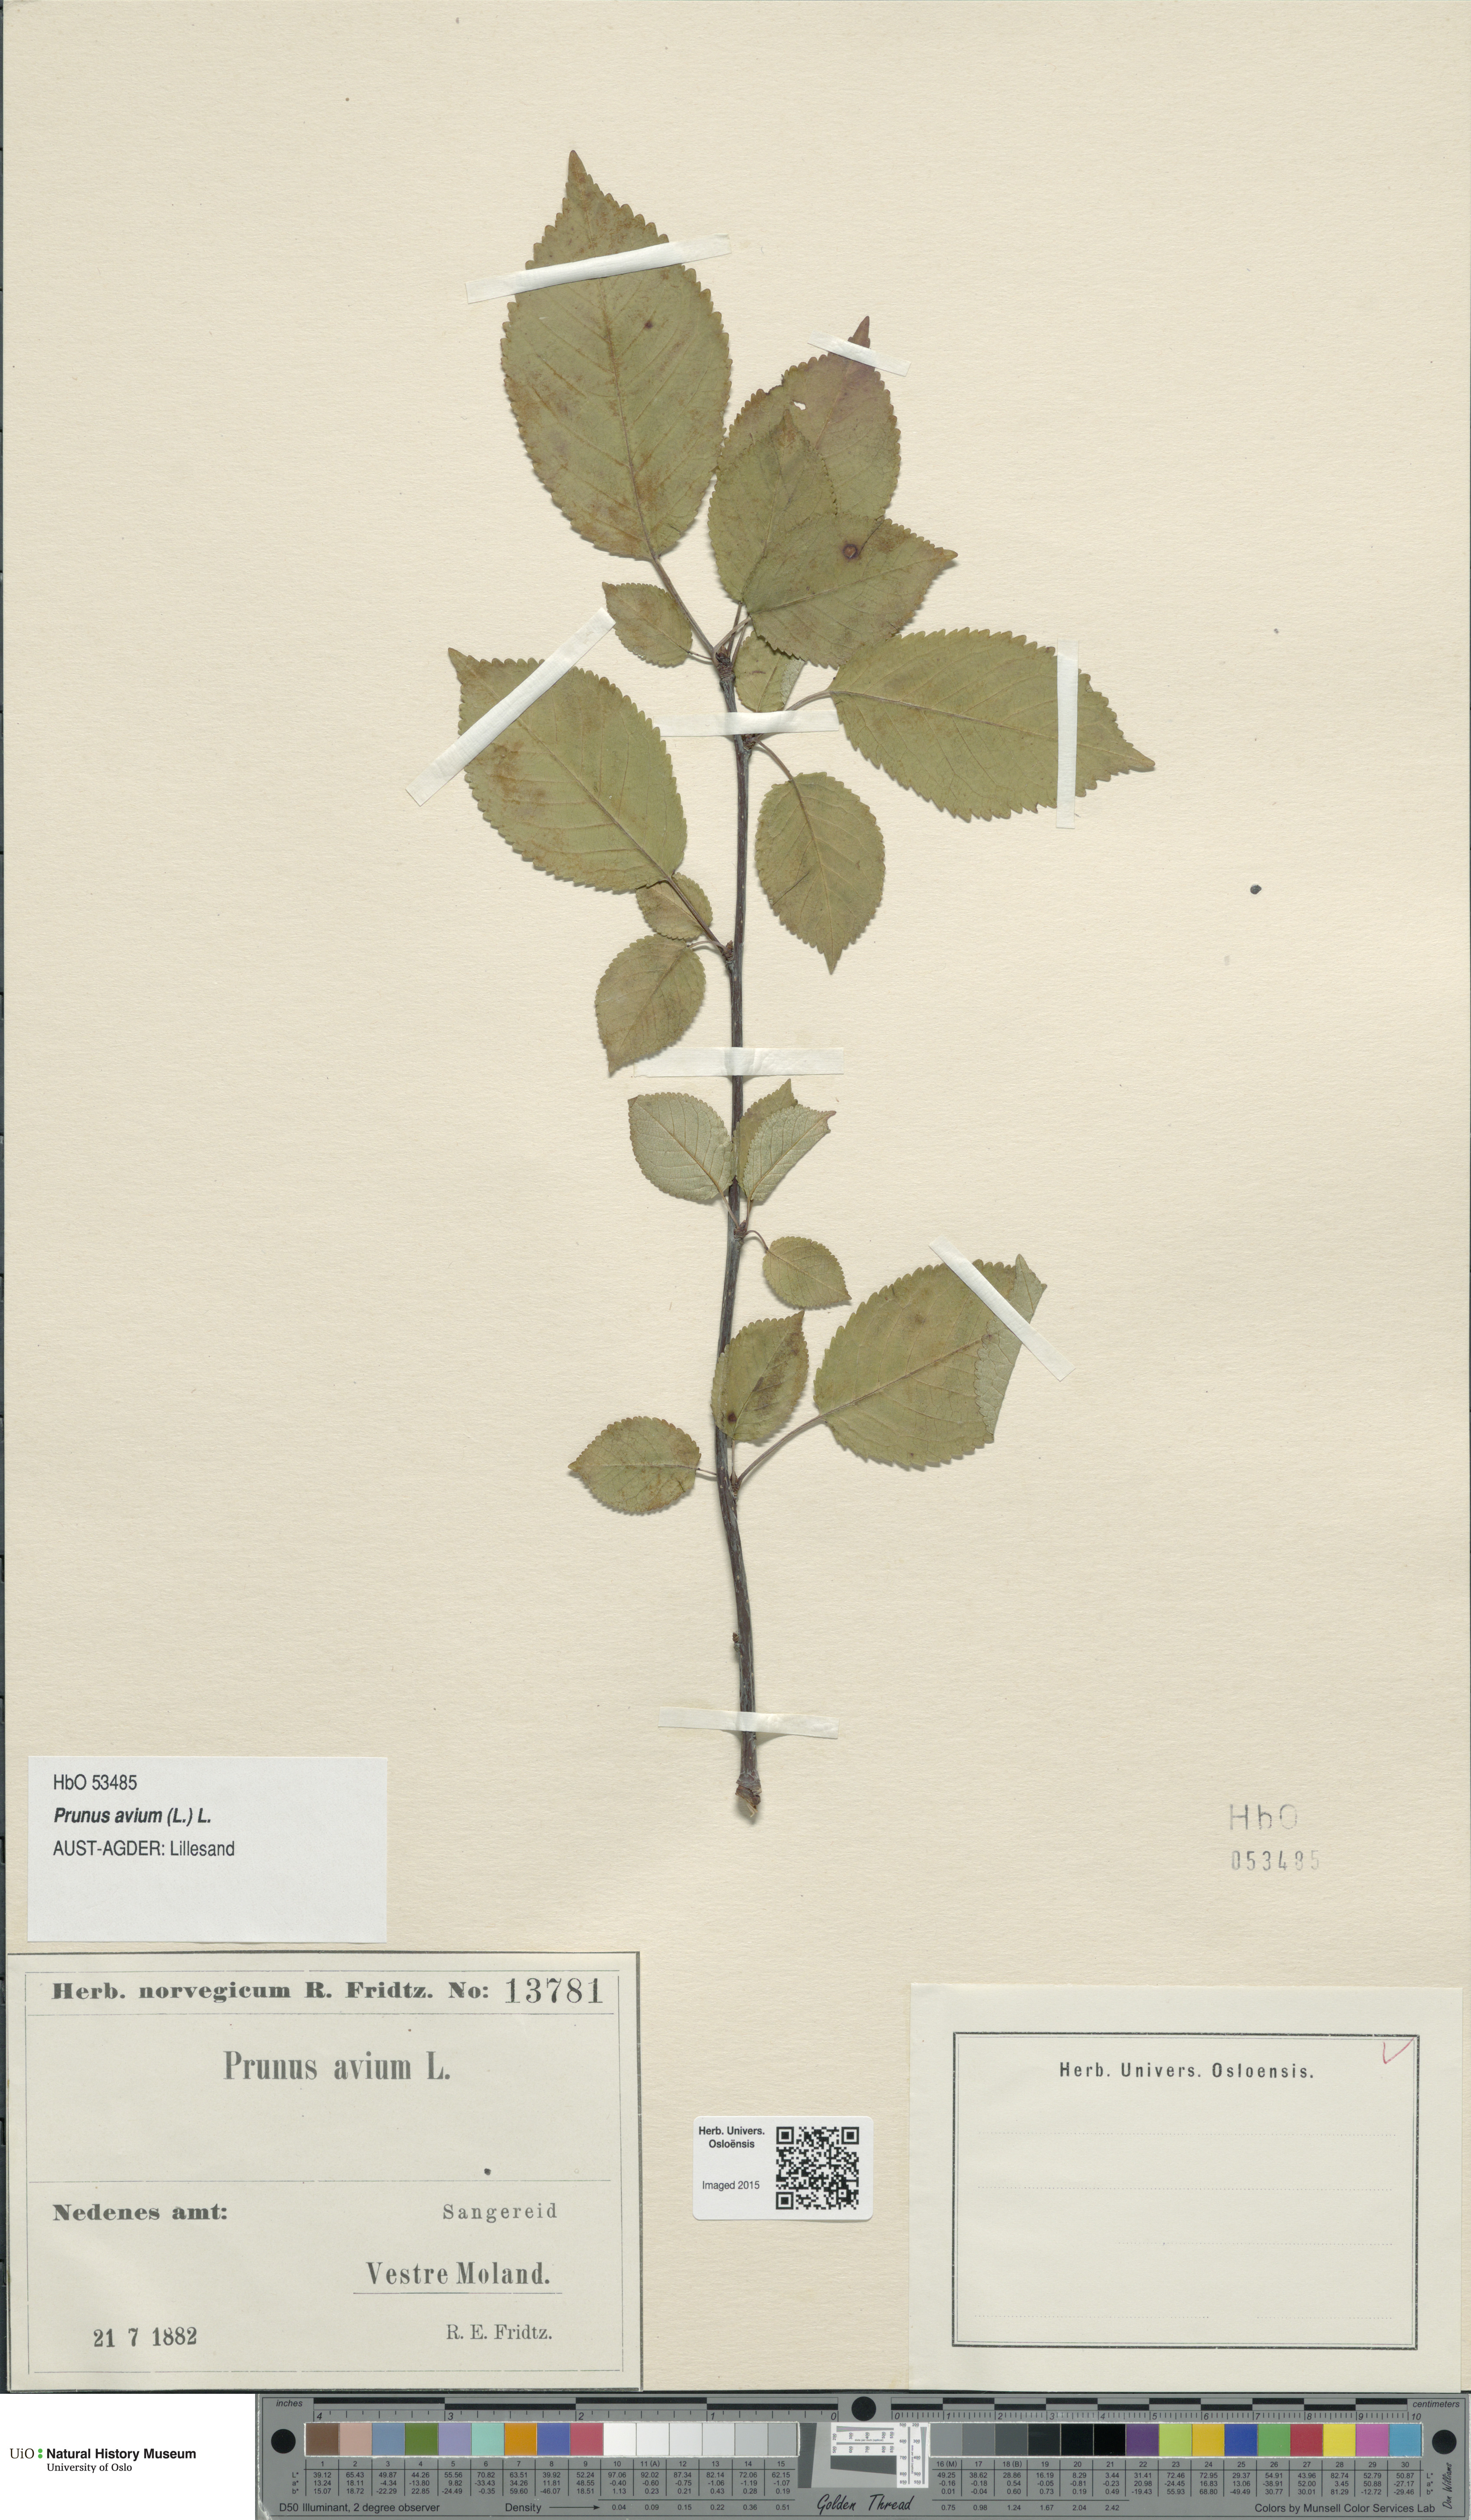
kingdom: Plantae
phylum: Tracheophyta
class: Magnoliopsida
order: Rosales
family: Rosaceae
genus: Prunus
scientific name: Prunus avium
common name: Sweet cherry
